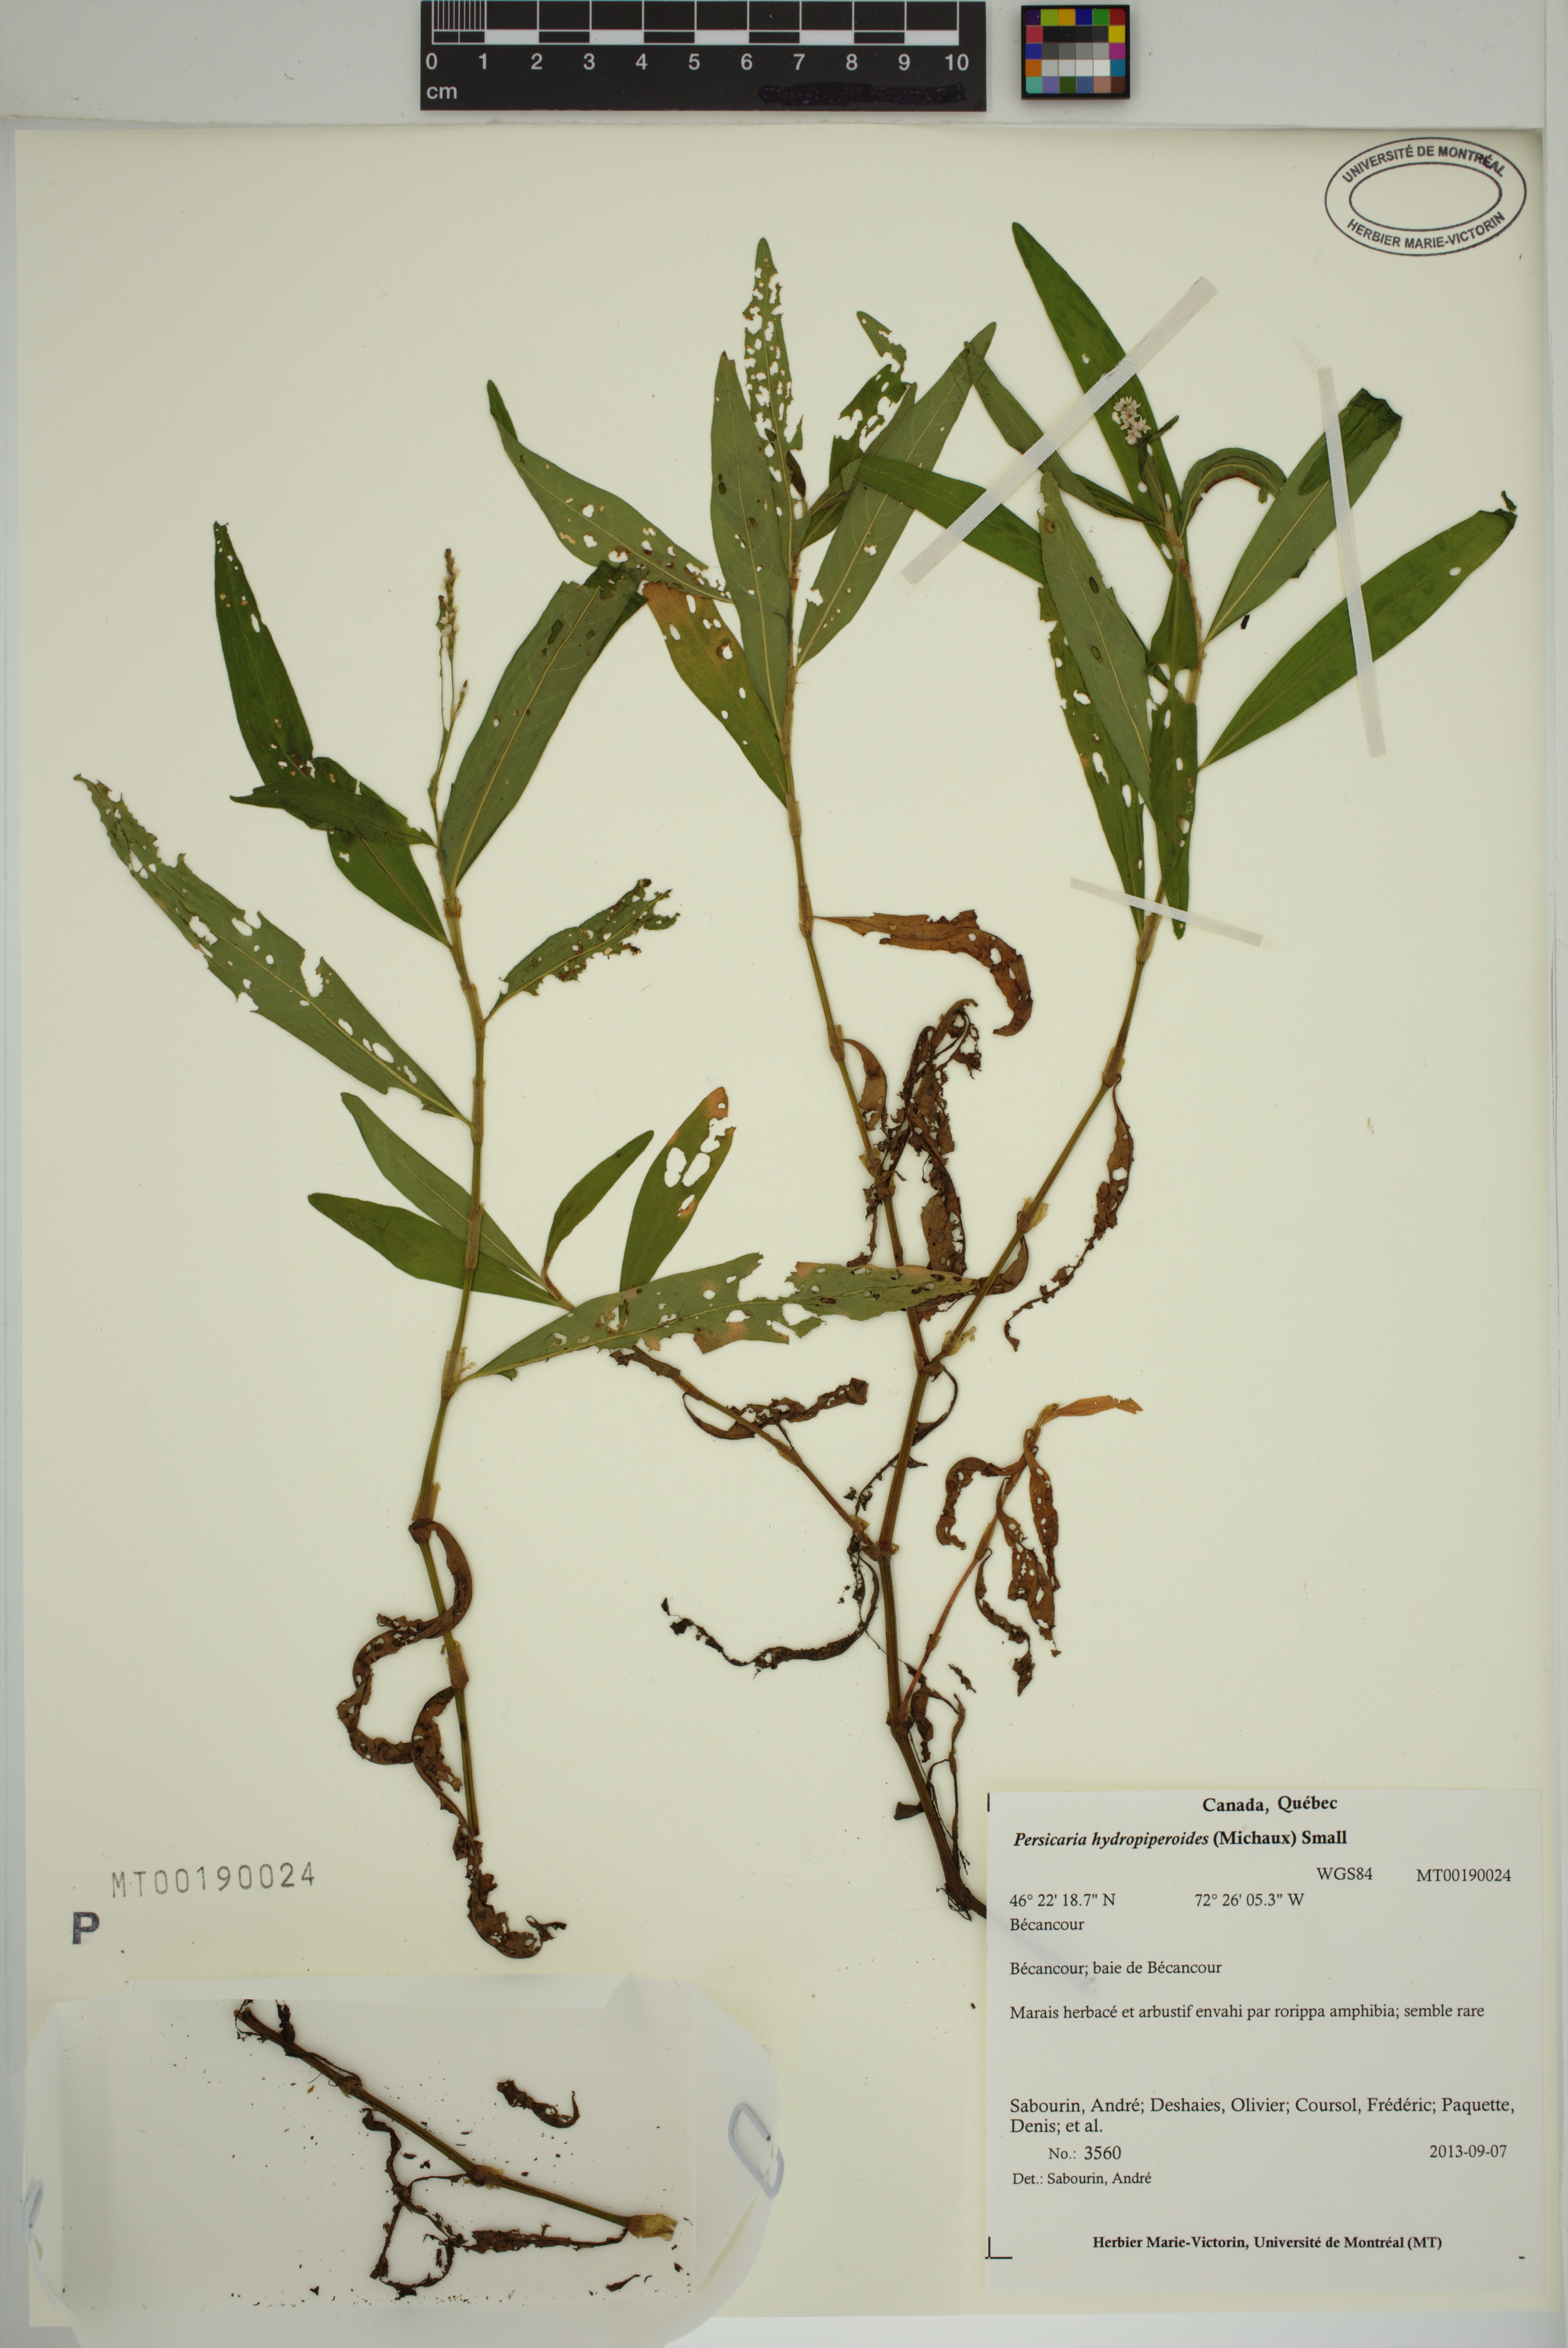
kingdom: Plantae
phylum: Tracheophyta
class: Magnoliopsida
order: Caryophyllales
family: Polygonaceae
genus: Persicaria
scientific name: Persicaria hydropiperoides
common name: Swamp smartweed
